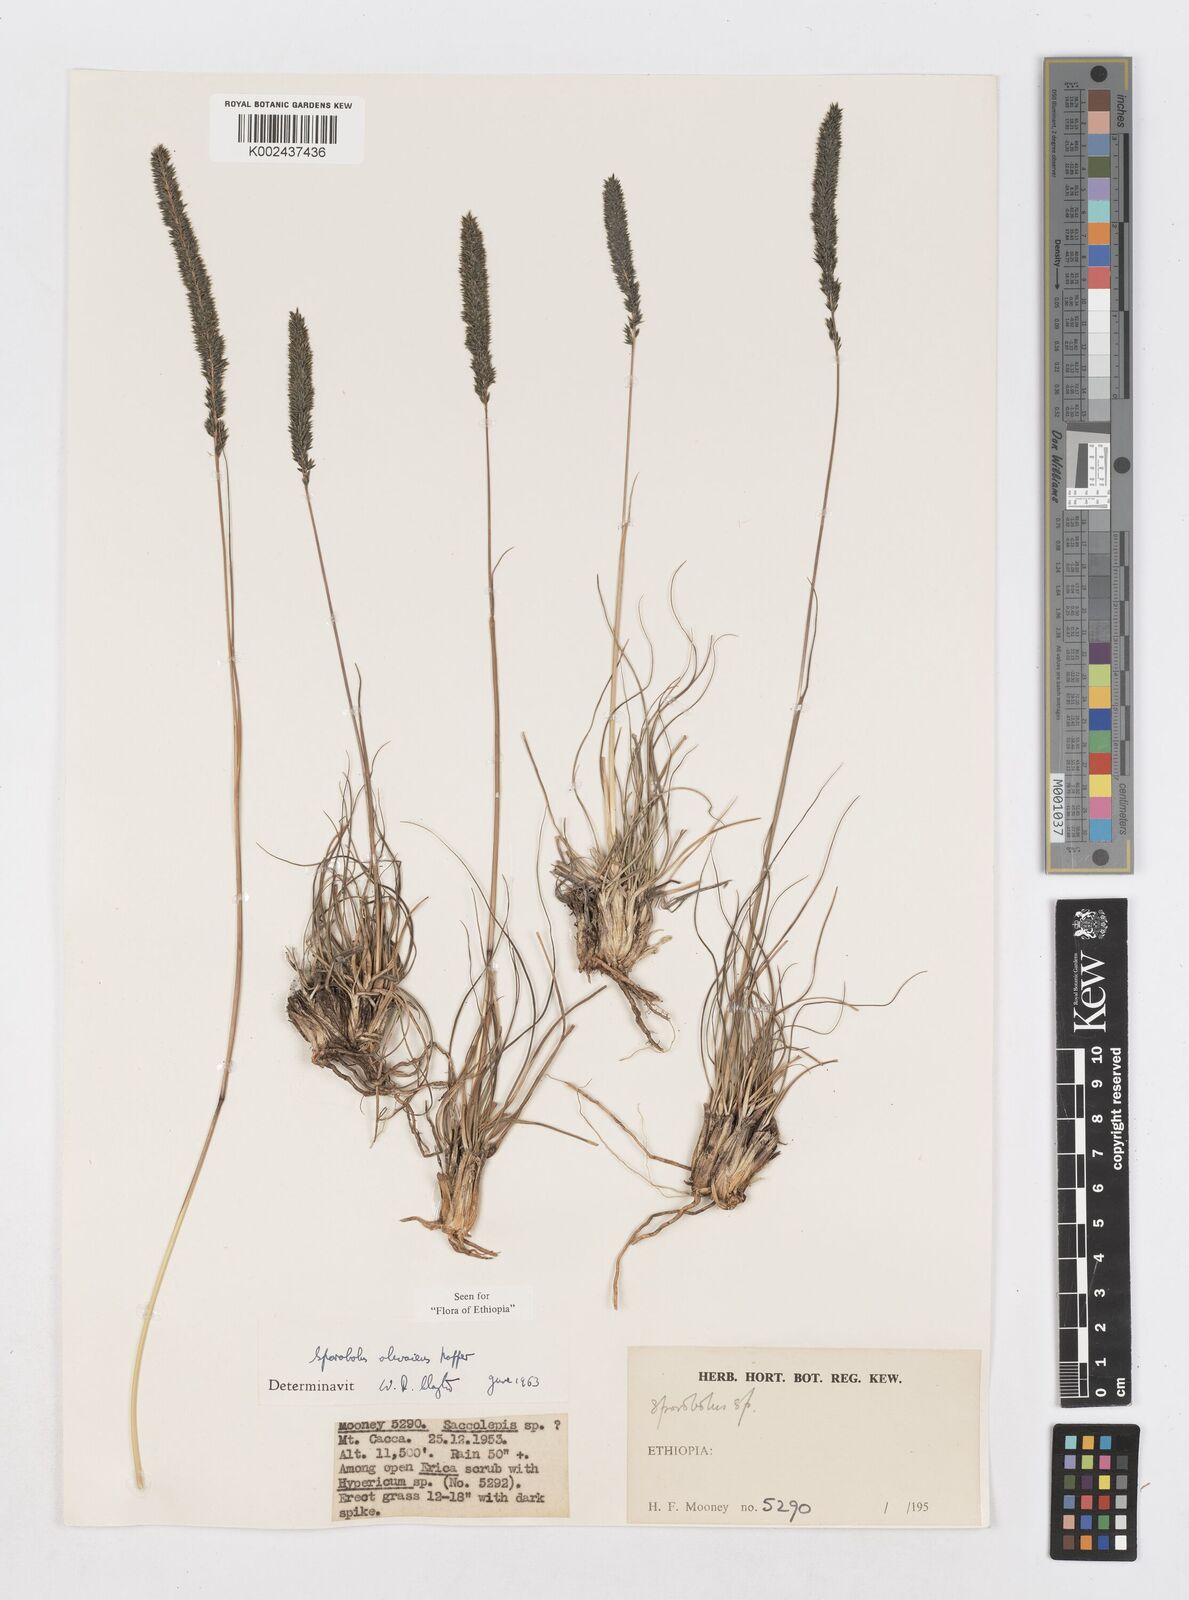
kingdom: Plantae
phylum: Tracheophyta
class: Liliopsida
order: Poales
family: Poaceae
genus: Sporobolus
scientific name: Sporobolus olivaceus
